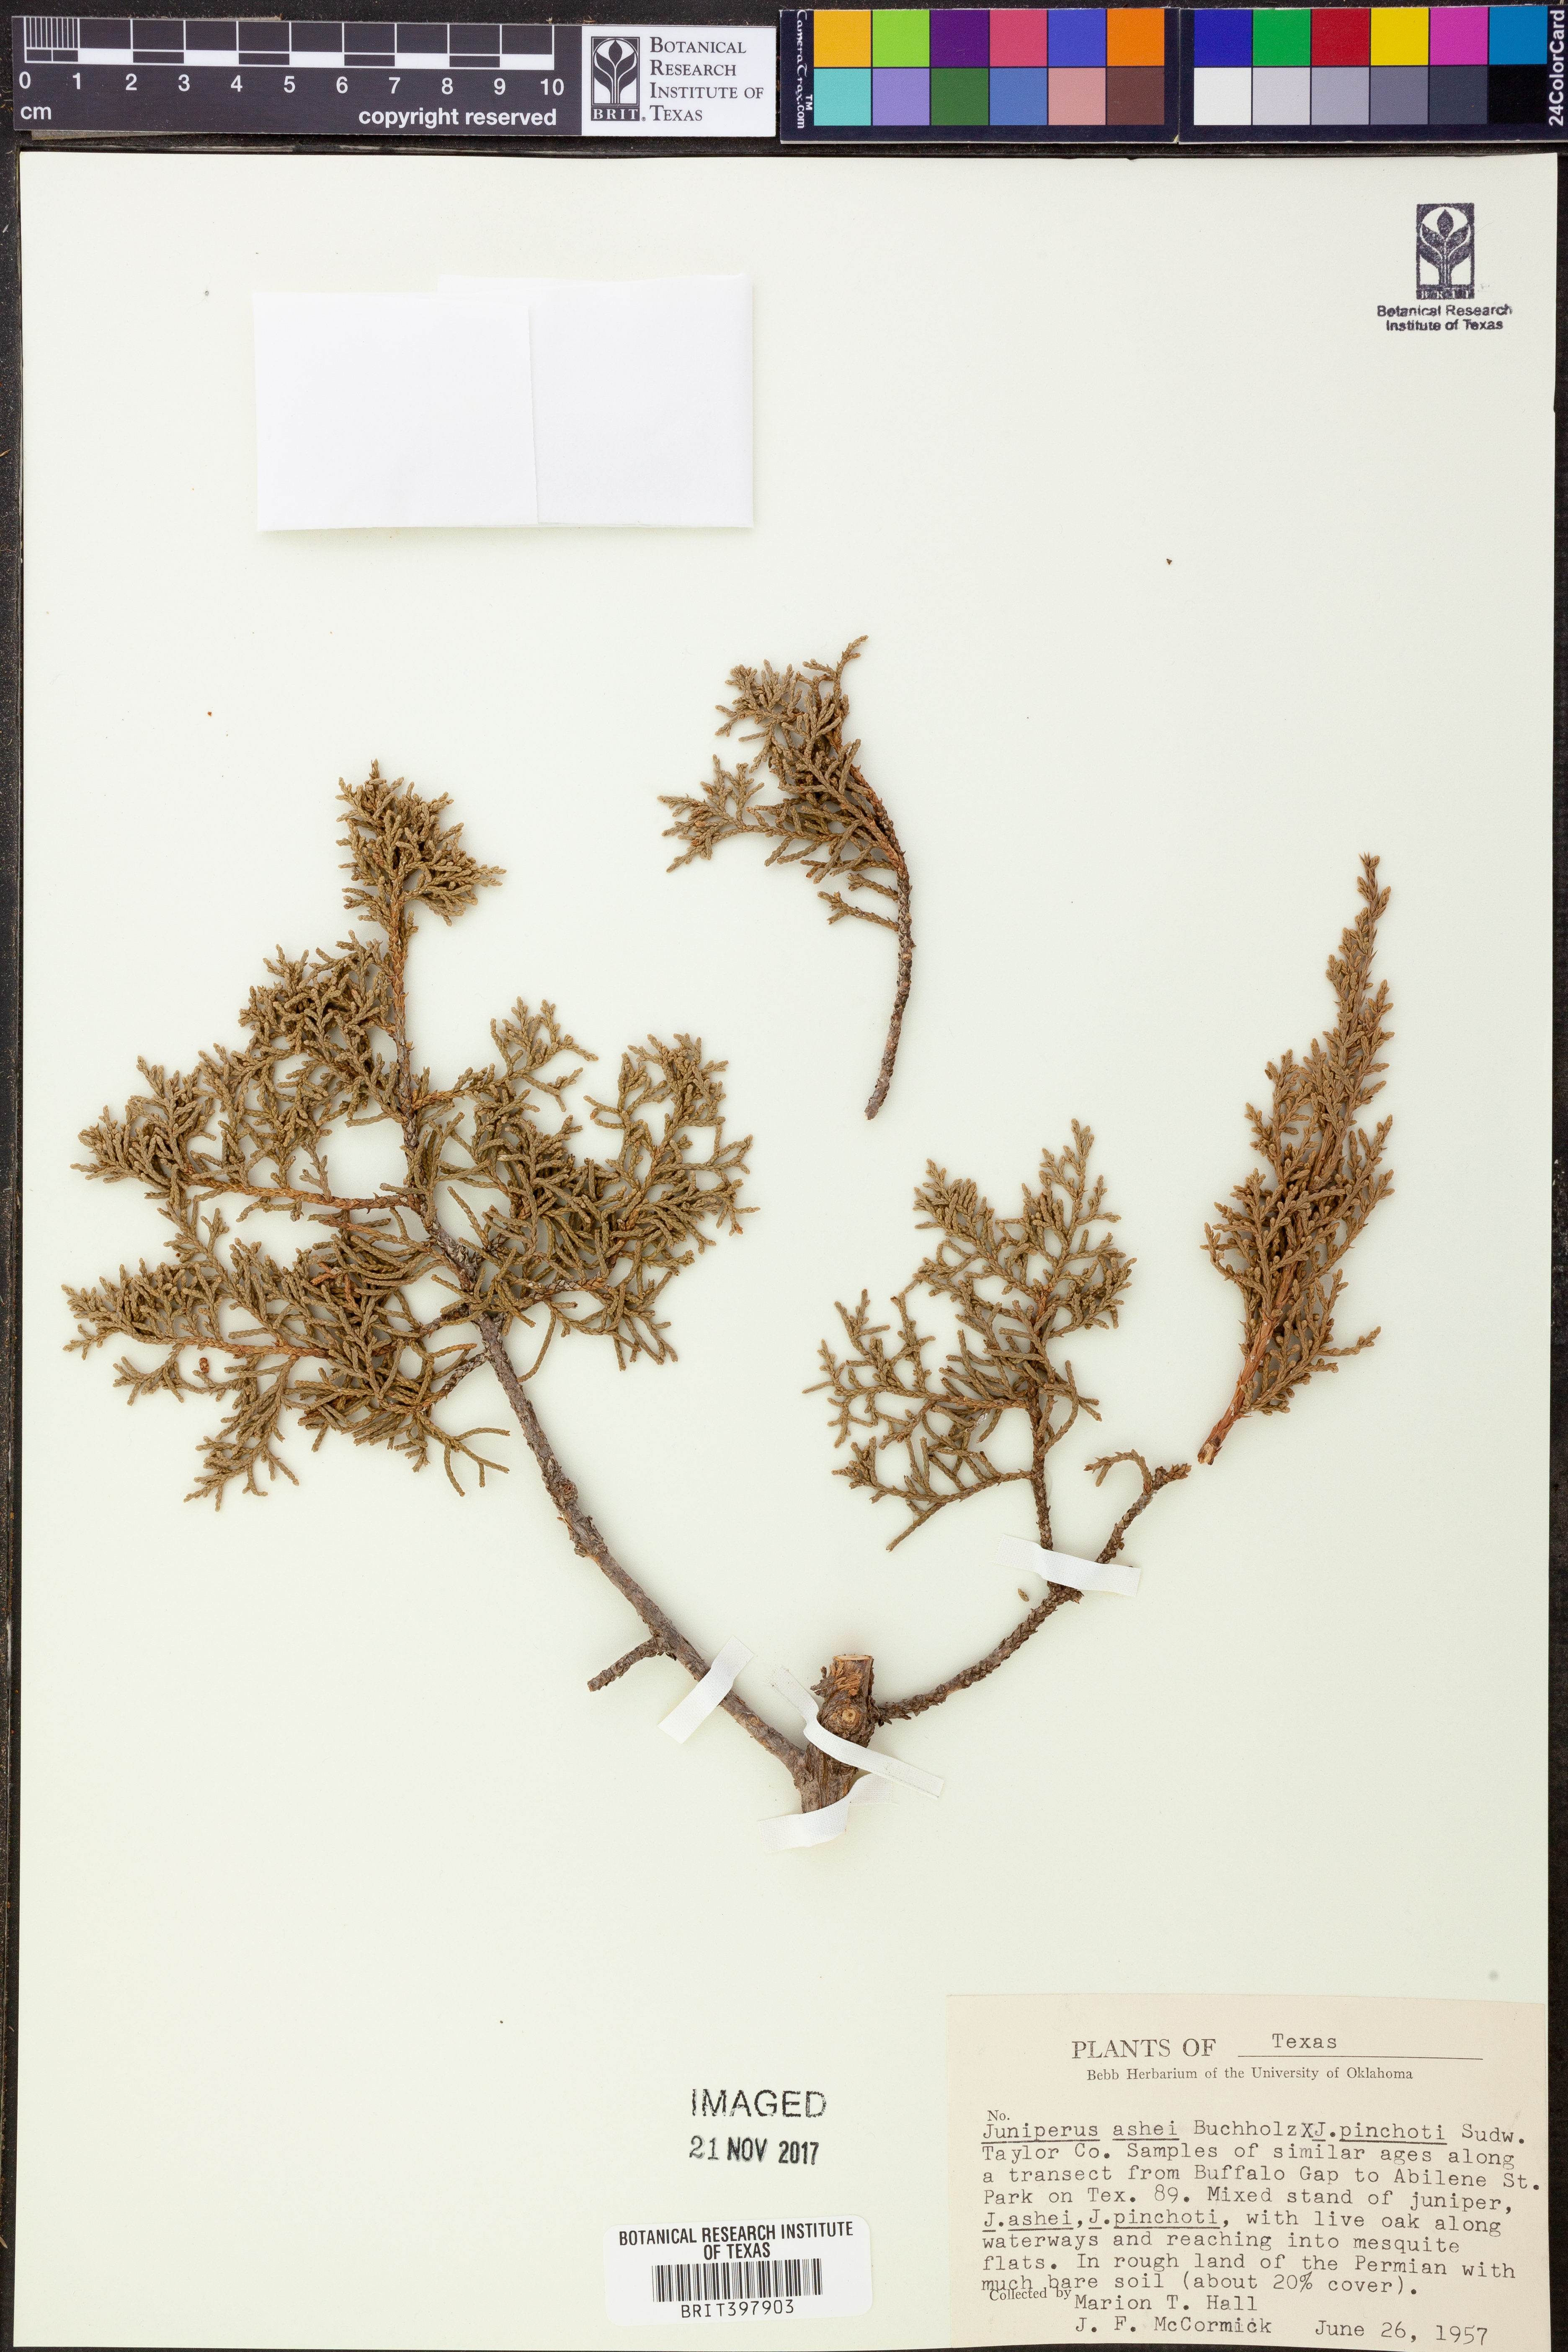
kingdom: Plantae
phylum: Tracheophyta
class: Pinopsida
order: Pinales
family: Cupressaceae
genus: Juniperus
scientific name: Juniperus ashei
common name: Mexican juniper
